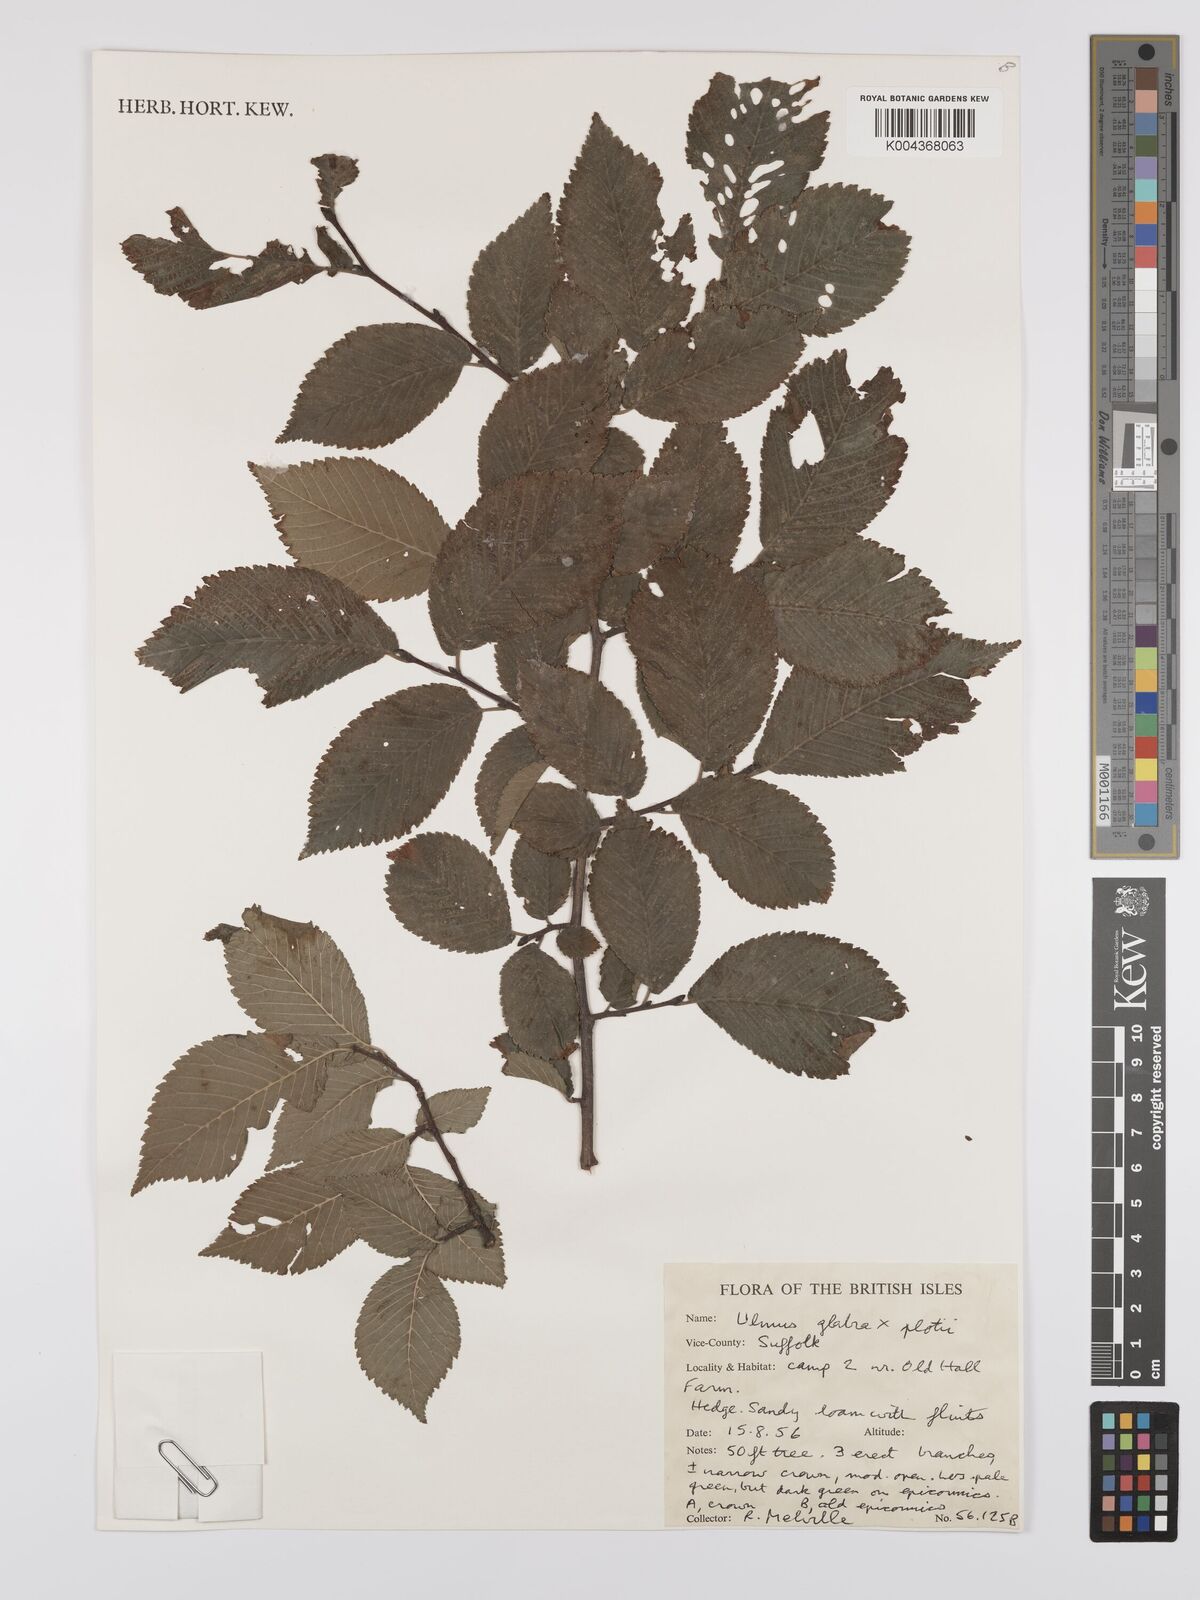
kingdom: Plantae
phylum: Tracheophyta
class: Magnoliopsida
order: Rosales
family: Ulmaceae
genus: Ulmus
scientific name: Ulmus
